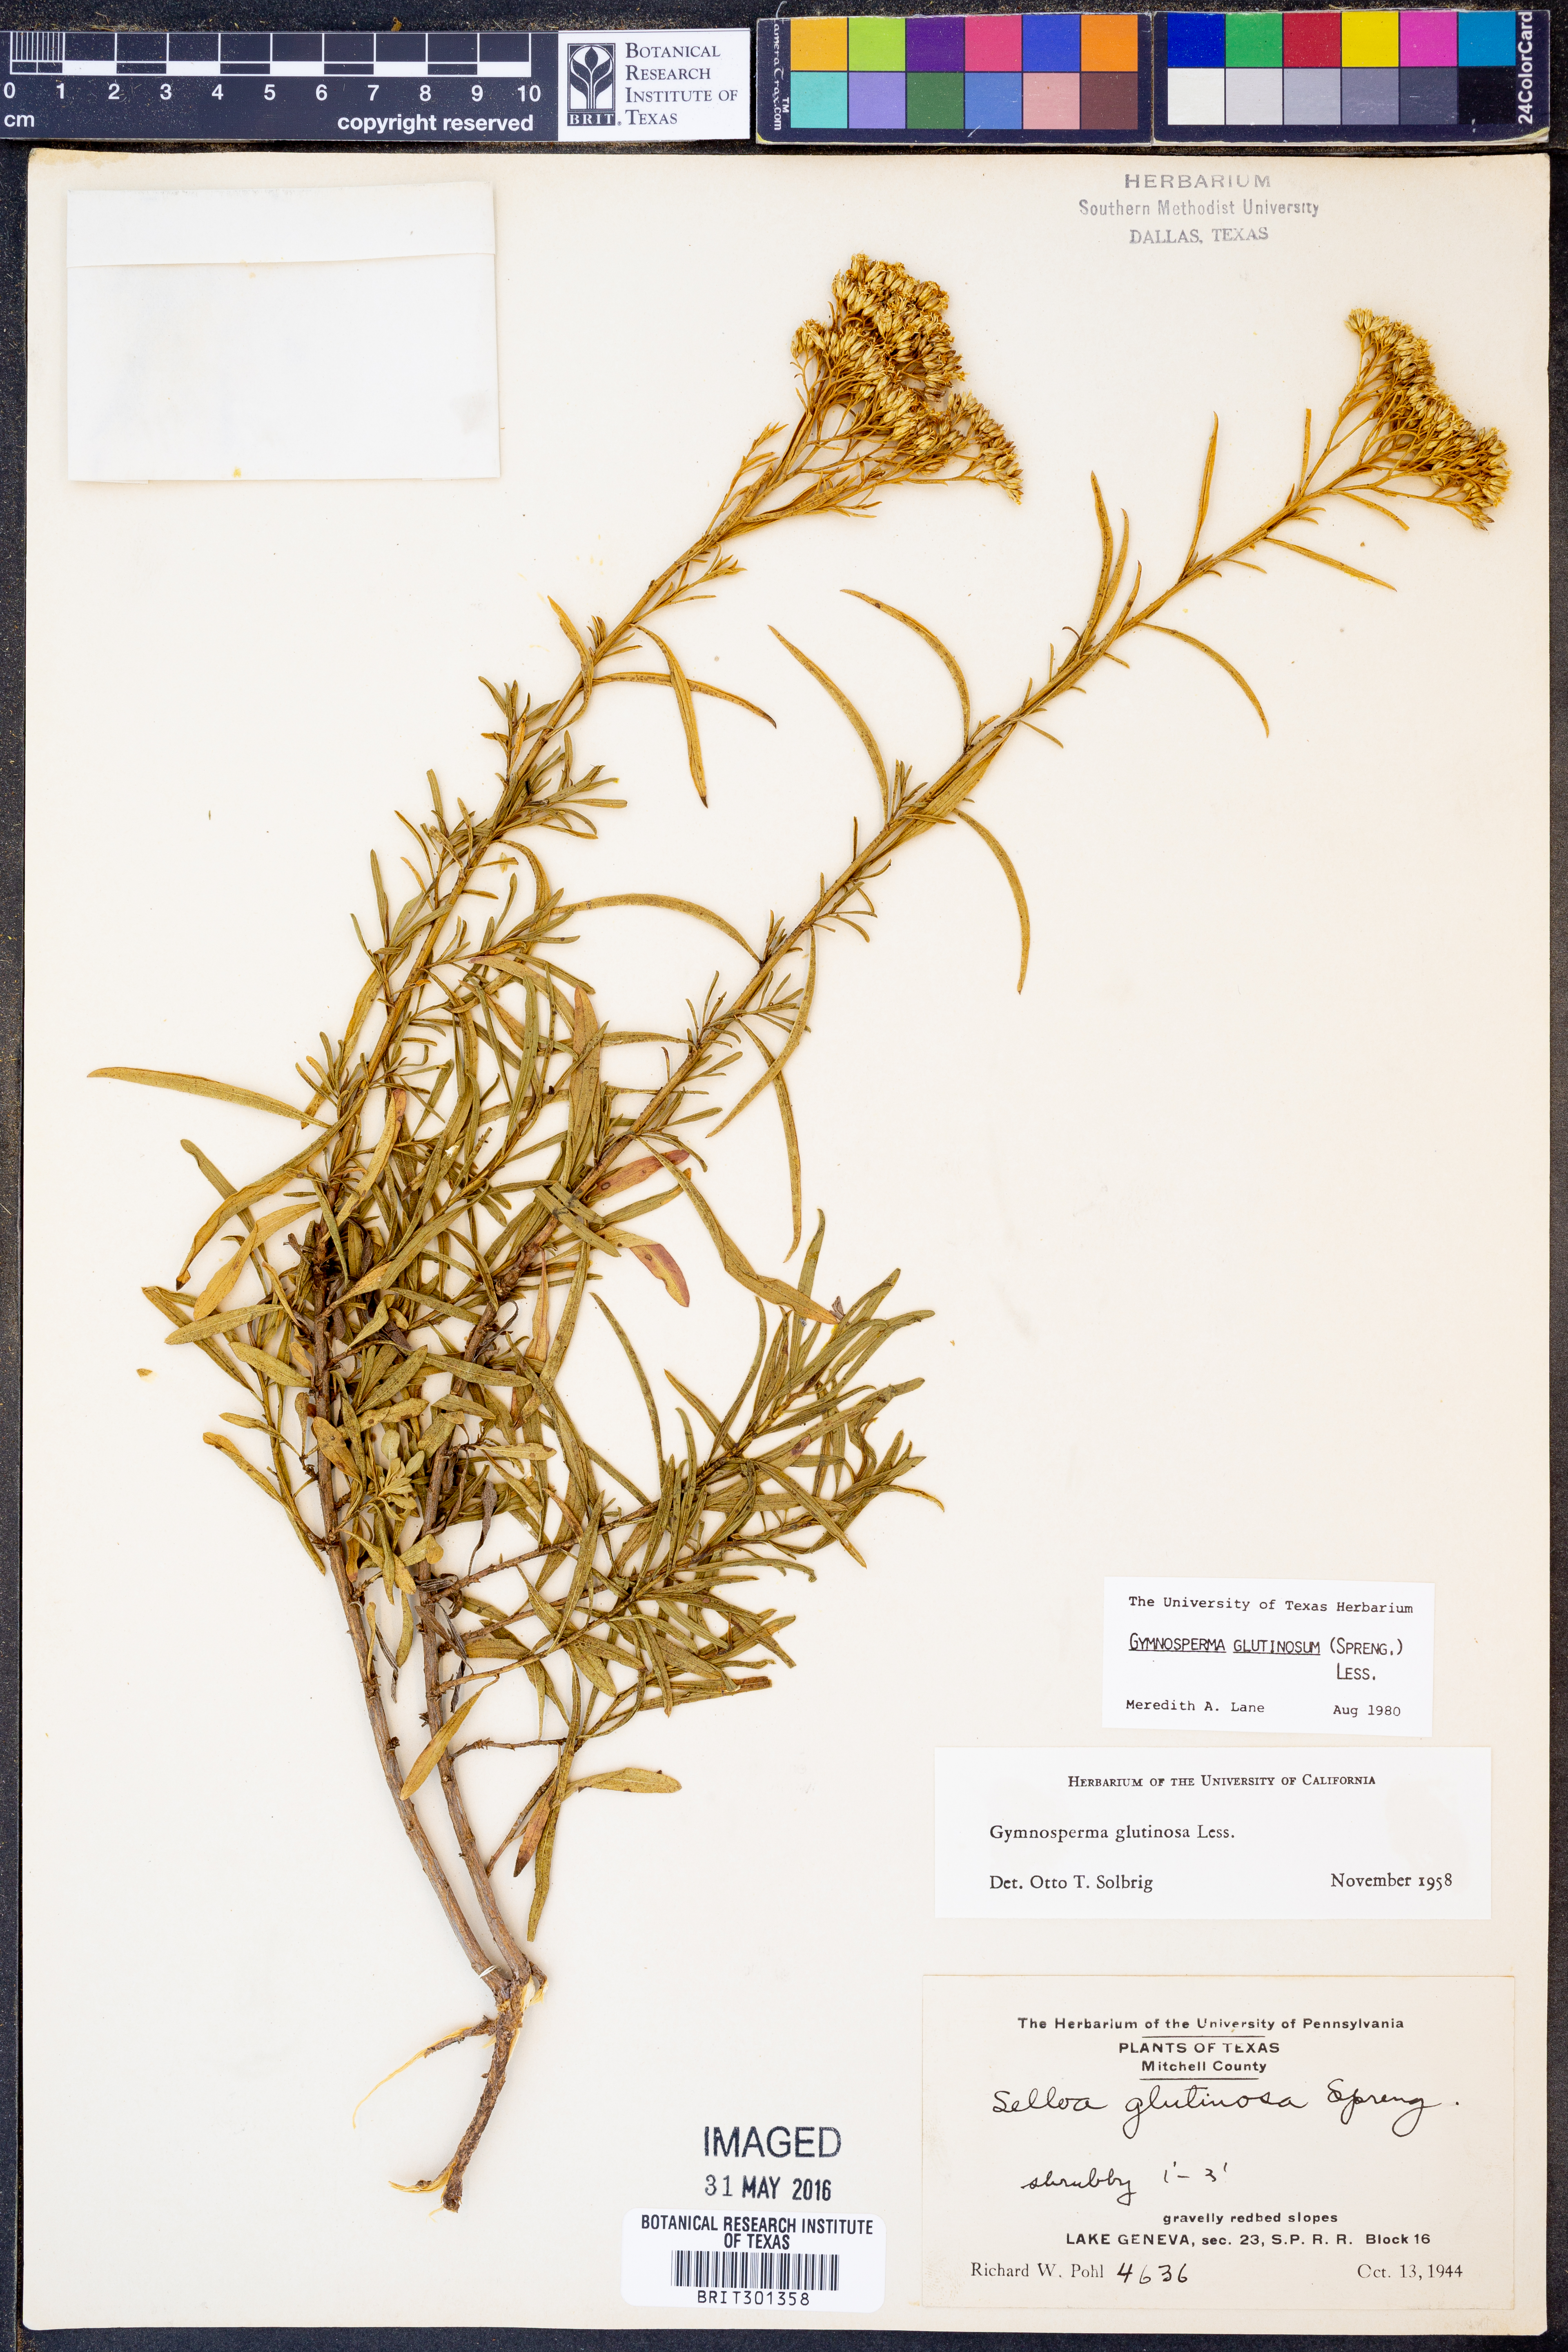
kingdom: Plantae
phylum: Tracheophyta
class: Magnoliopsida
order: Asterales
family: Asteraceae
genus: Gymnosperma
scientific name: Gymnosperma glutinosum
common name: Gumhead
